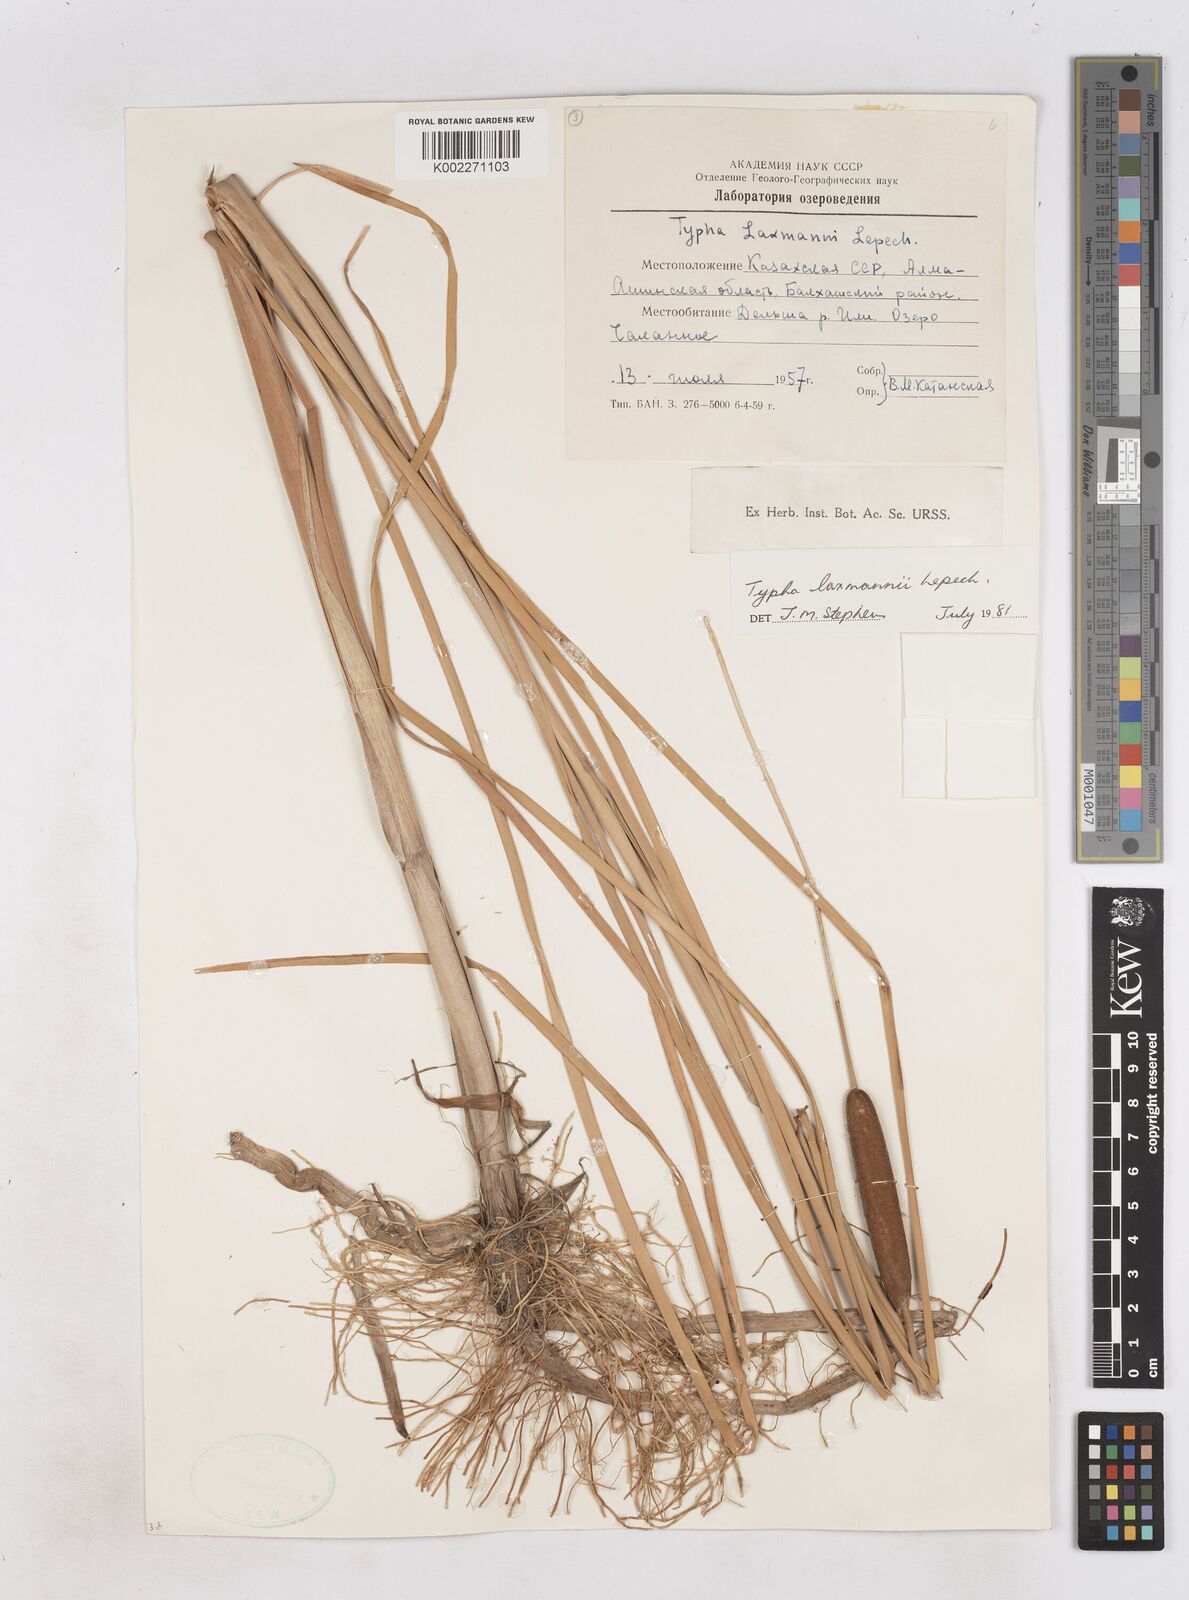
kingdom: Plantae
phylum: Tracheophyta
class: Liliopsida
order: Poales
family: Typhaceae
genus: Typha
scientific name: Typha laxmannii
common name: Laxman’s bulrush
